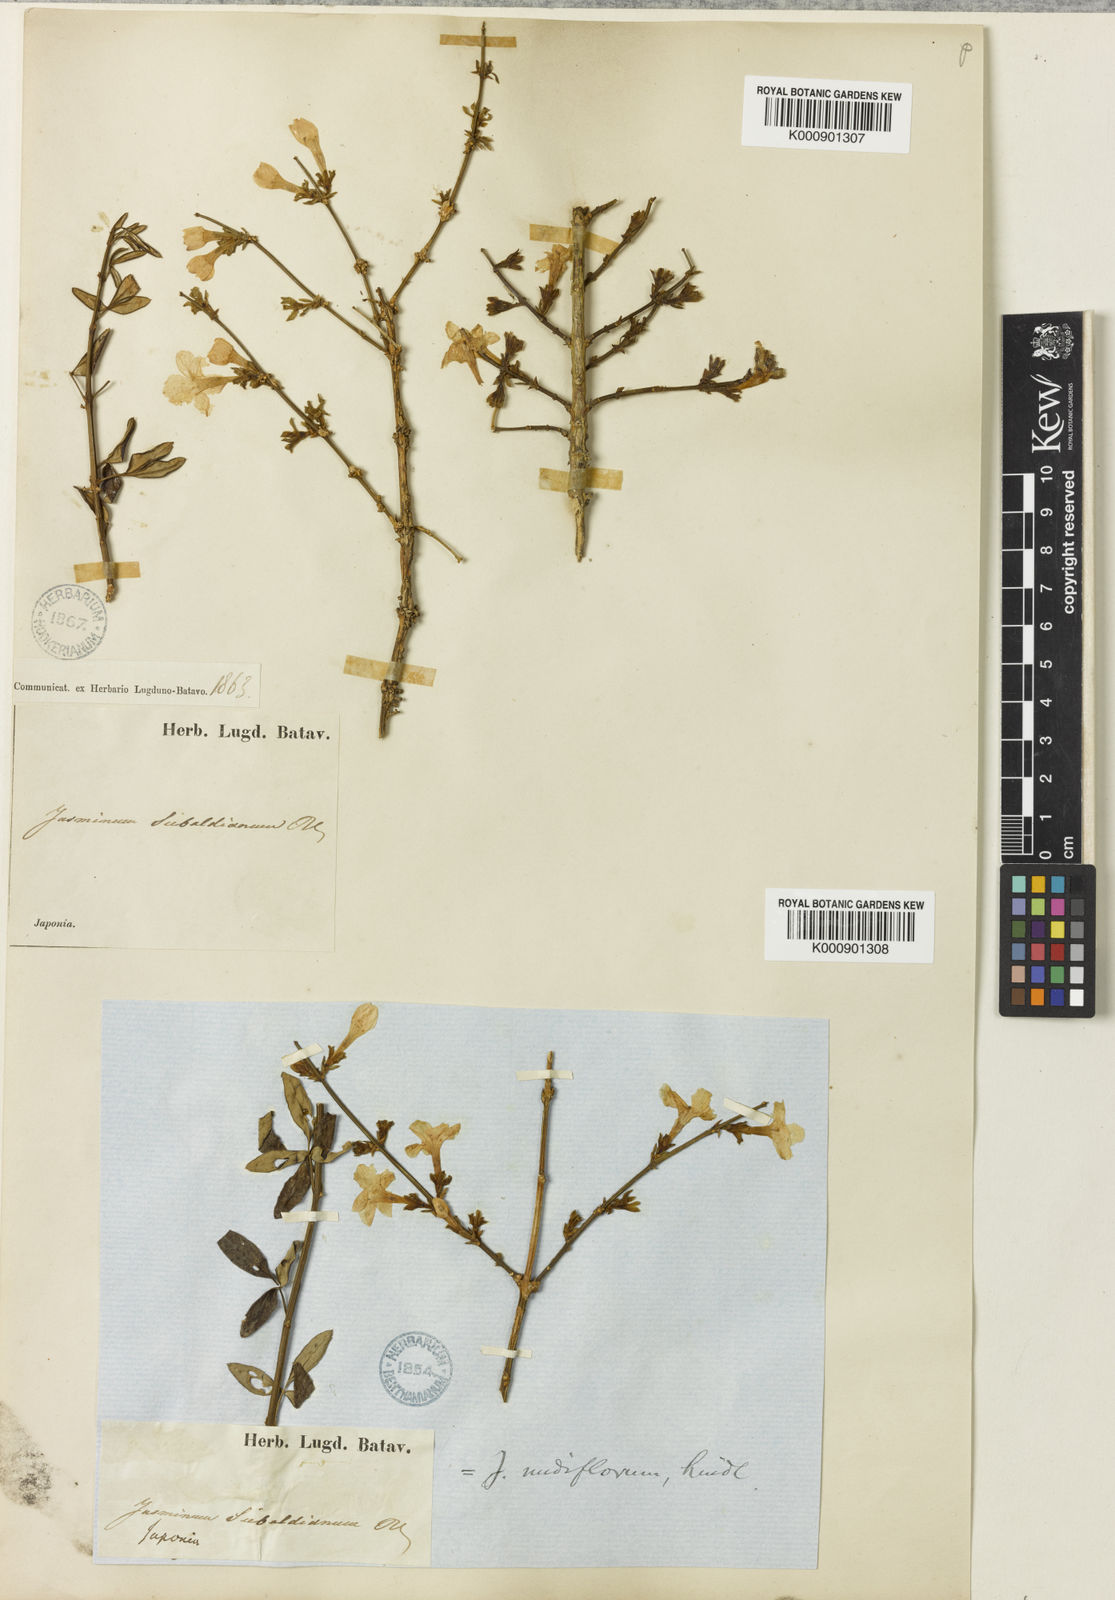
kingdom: Plantae
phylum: Tracheophyta
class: Magnoliopsida
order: Lamiales
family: Oleaceae
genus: Jasminum
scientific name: Jasminum nudiflorum
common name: Winter jasmine
